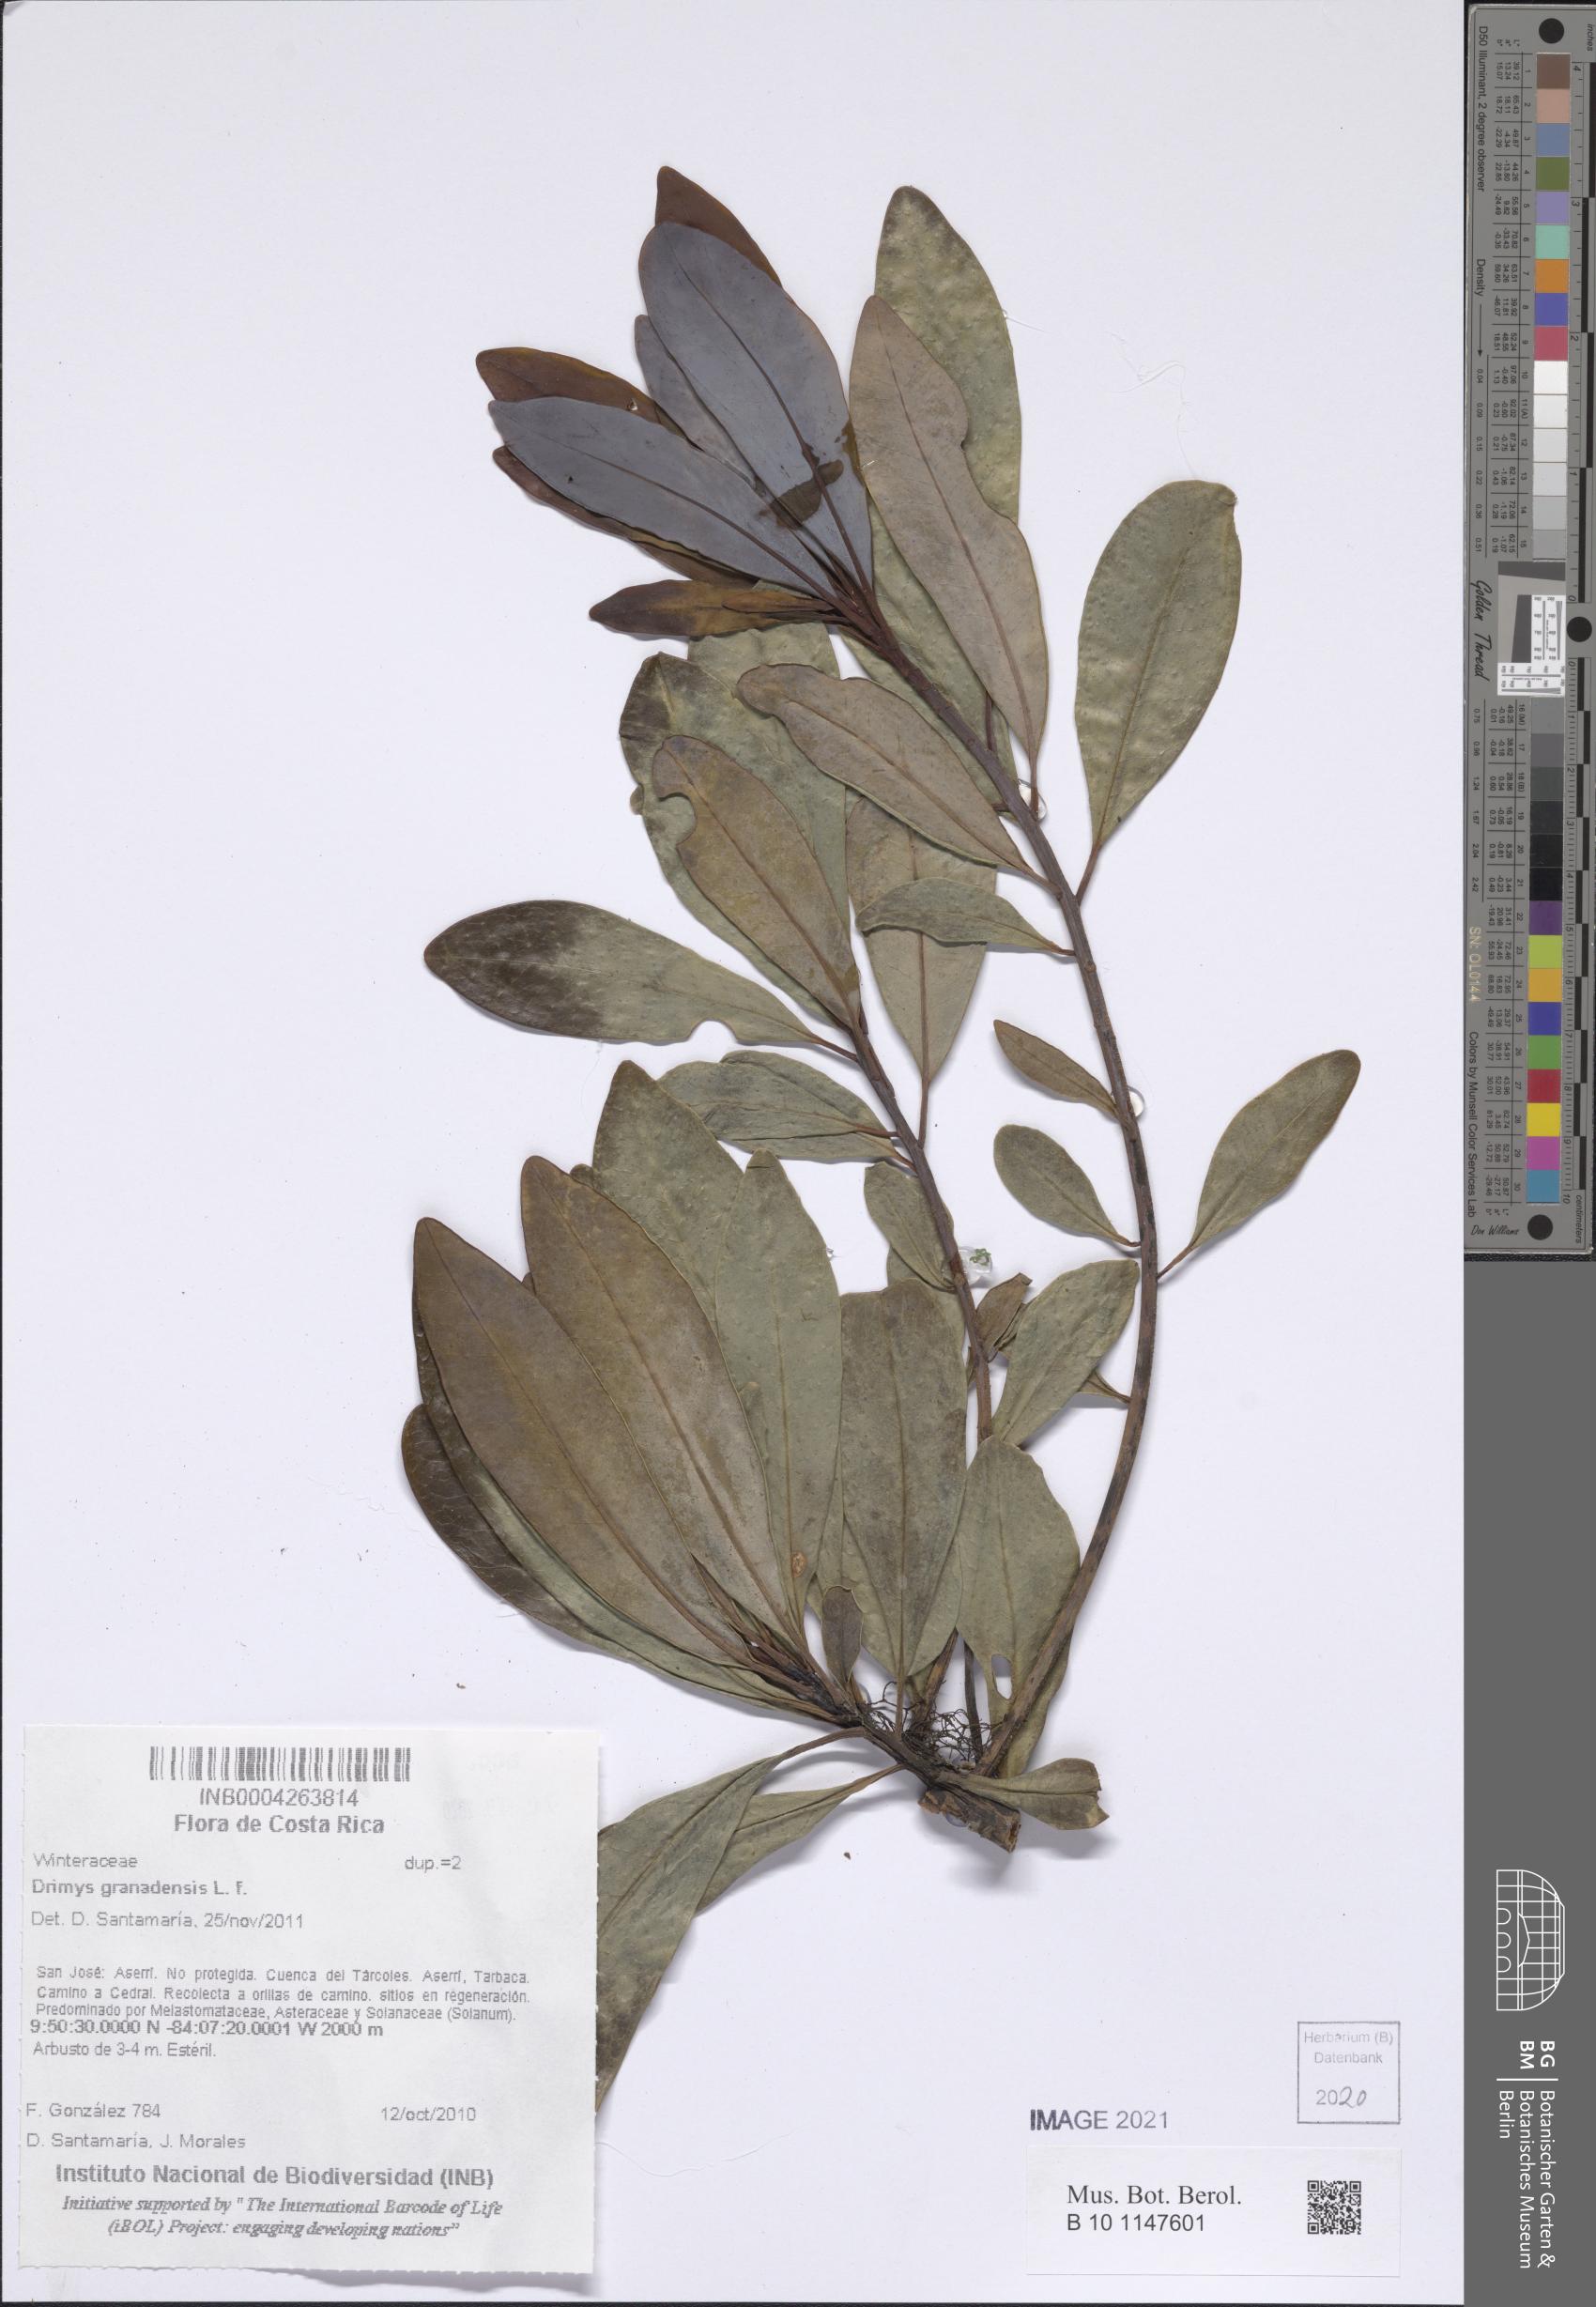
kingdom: Plantae
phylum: Tracheophyta
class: Magnoliopsida
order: Canellales
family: Winteraceae
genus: Drimys
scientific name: Drimys granadensis
